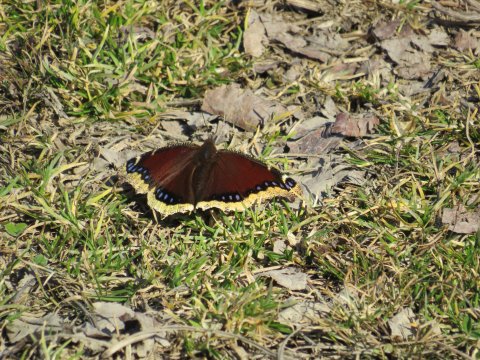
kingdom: Animalia
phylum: Arthropoda
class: Insecta
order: Lepidoptera
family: Nymphalidae
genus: Nymphalis
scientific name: Nymphalis antiopa
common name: Mourning Cloak
